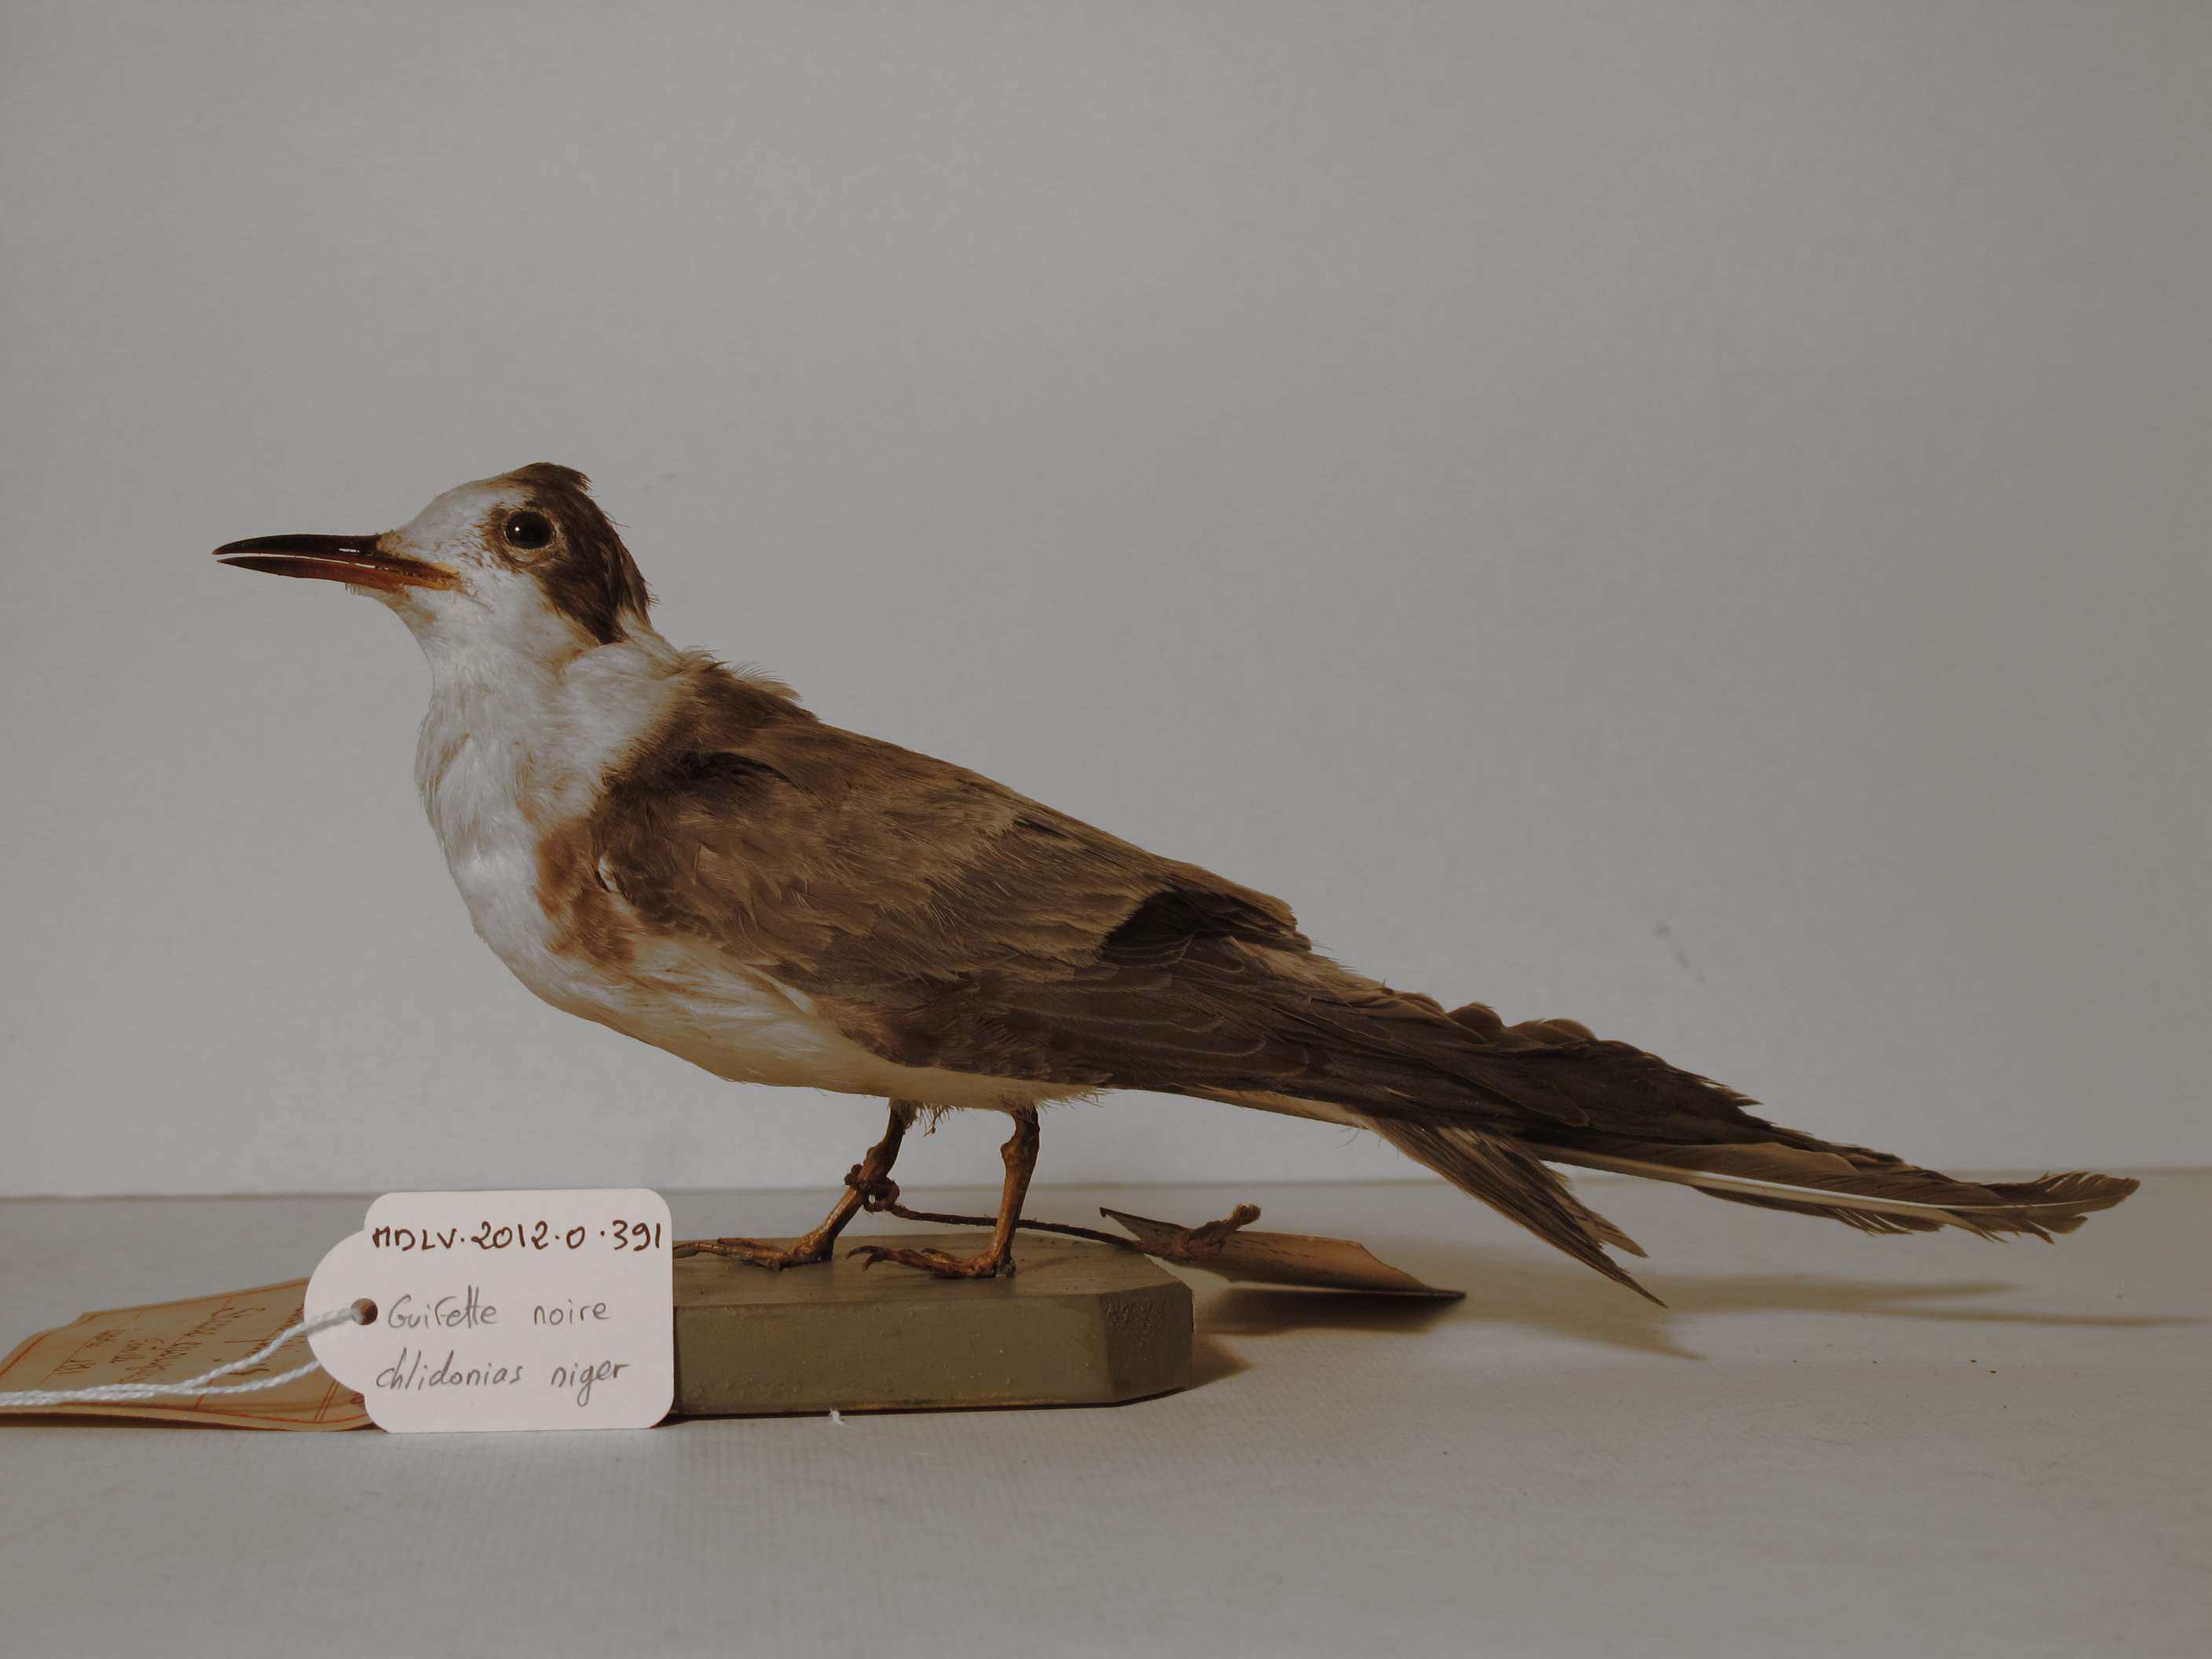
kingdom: Animalia
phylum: Chordata
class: Aves
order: Charadriiformes
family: Laridae
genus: Chlidonias
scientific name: Chlidonias niger
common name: Black Tern
